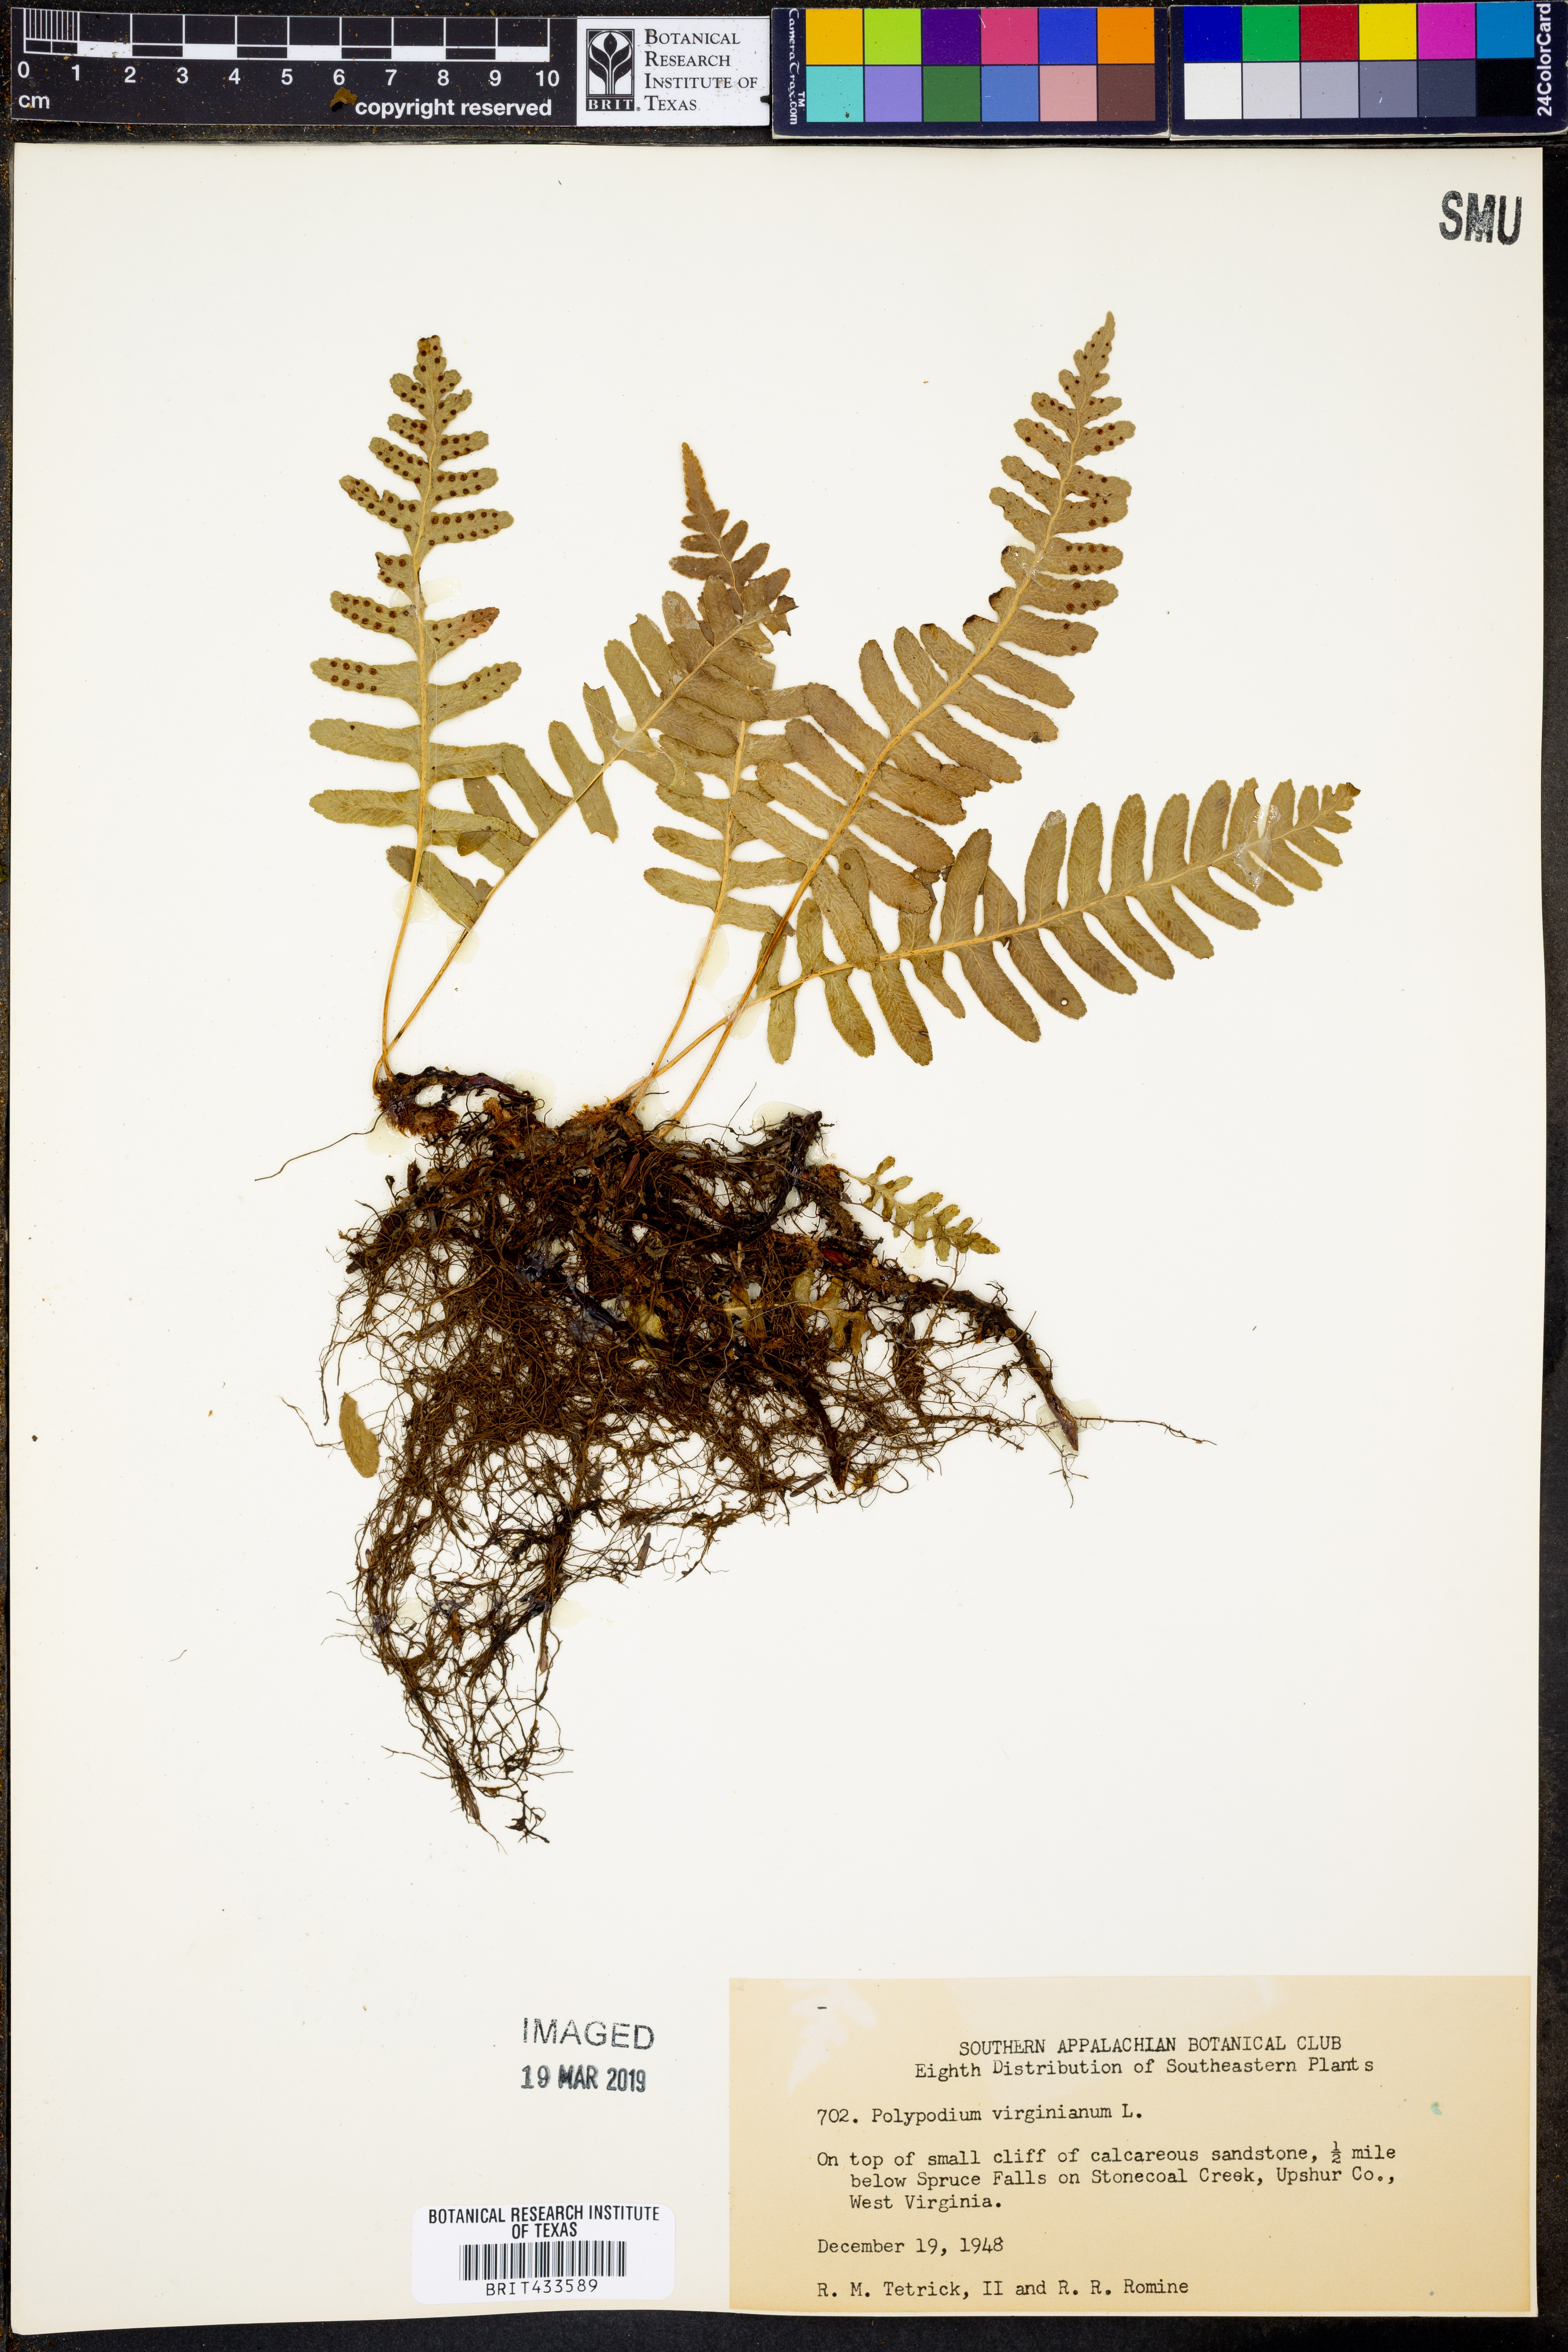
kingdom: Plantae
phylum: Tracheophyta
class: Polypodiopsida
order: Polypodiales
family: Polypodiaceae
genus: Polypodium
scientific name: Polypodium virginianum
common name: American wall fern
